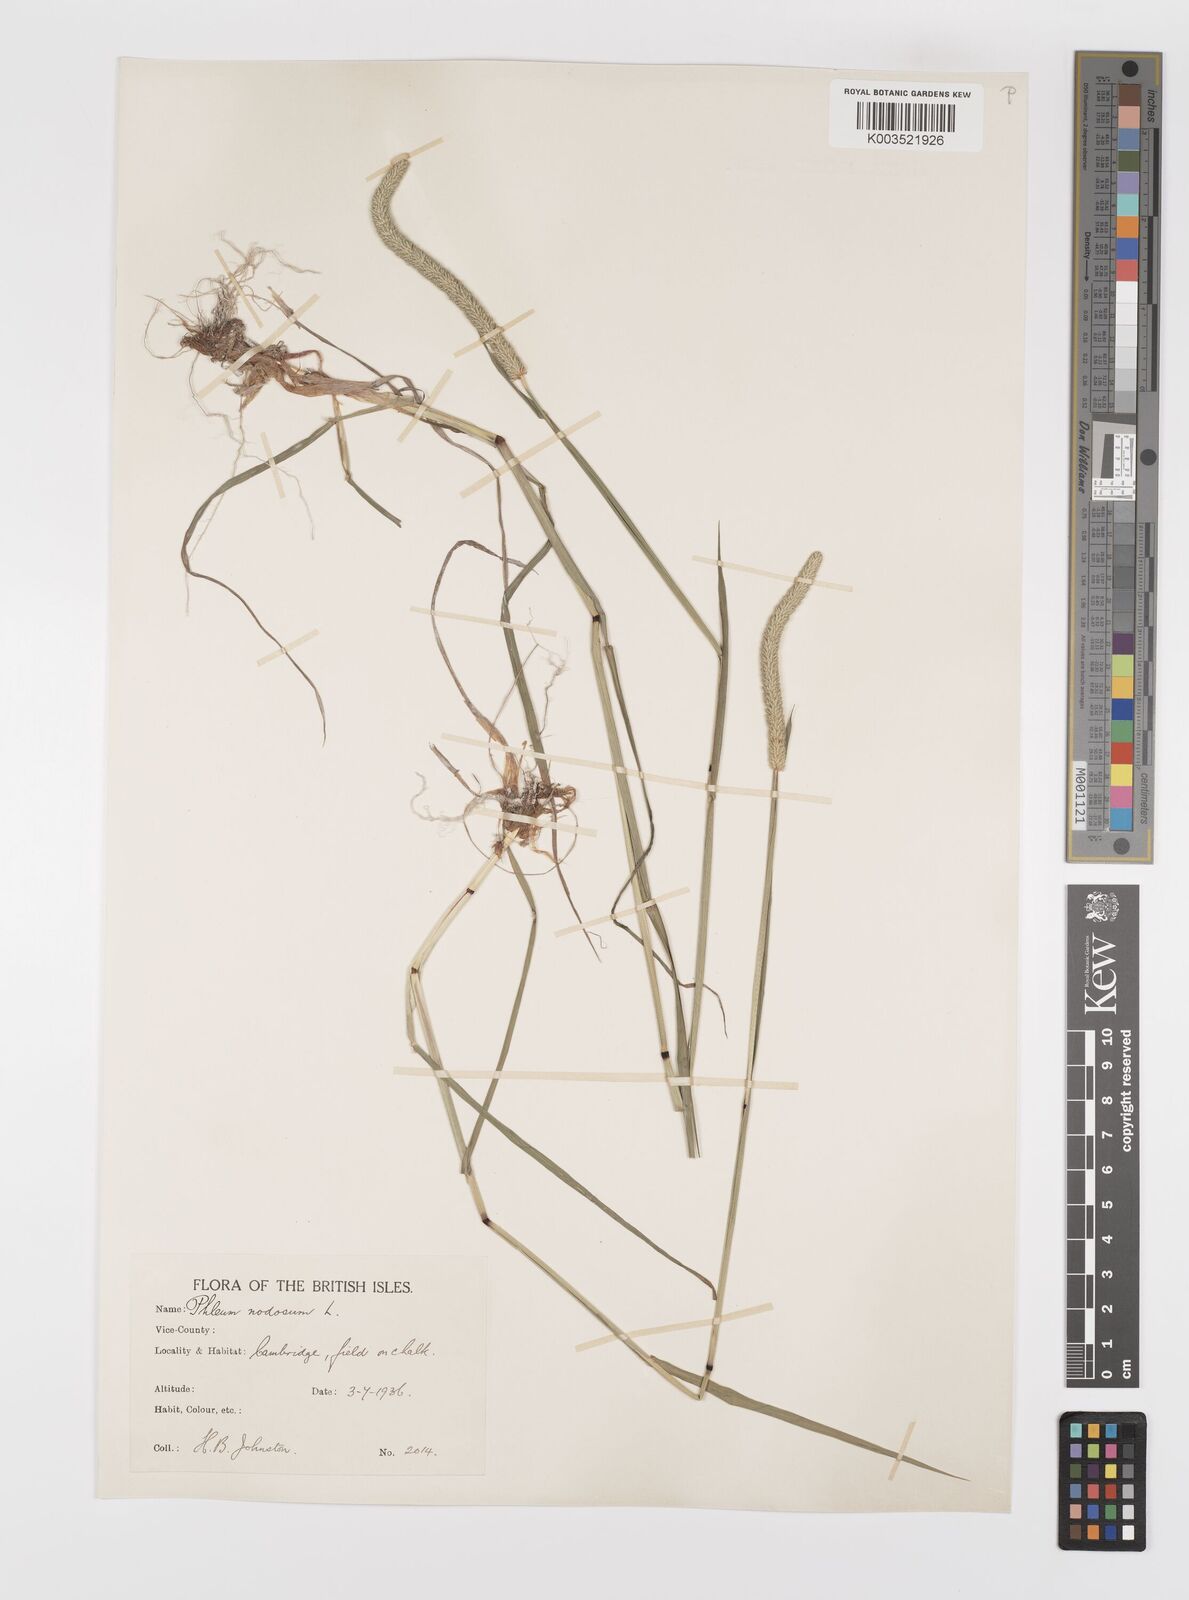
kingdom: Plantae
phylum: Tracheophyta
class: Liliopsida
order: Poales
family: Poaceae
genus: Phleum
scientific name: Phleum bertolonii
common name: Smaller cat's-tail
